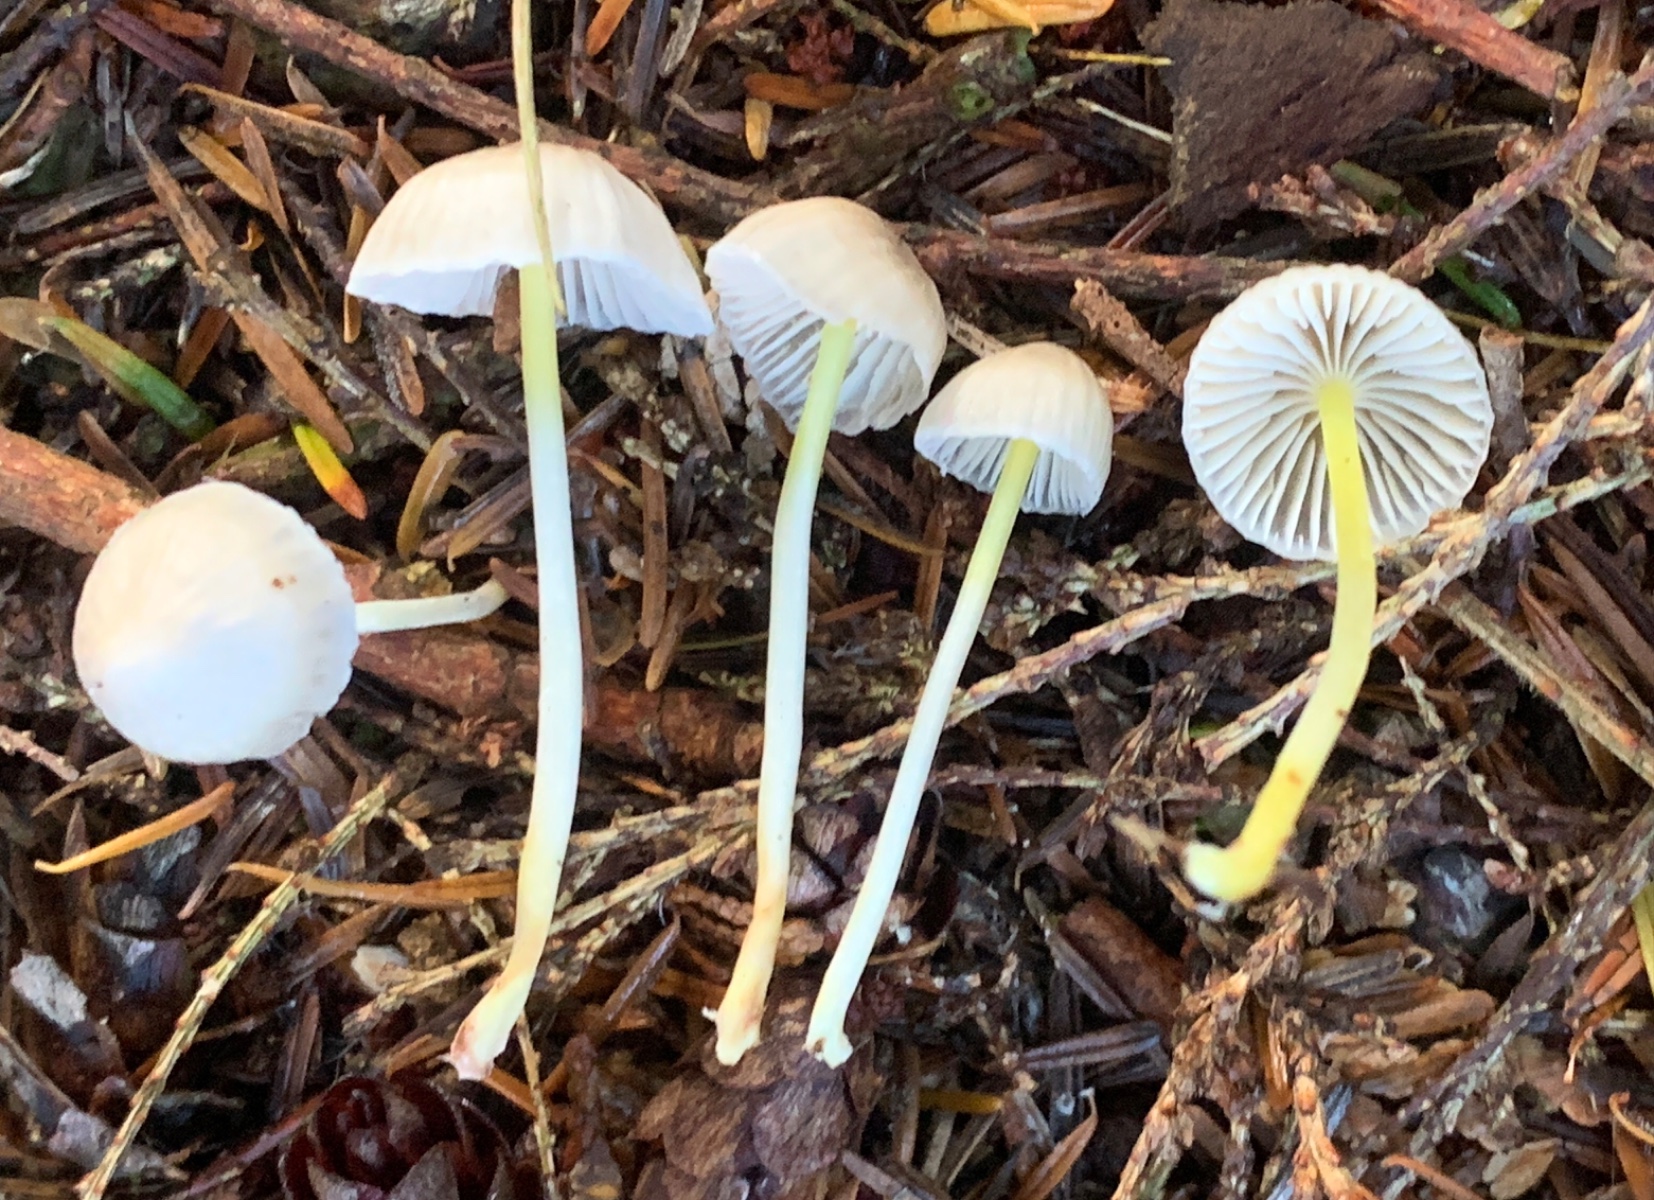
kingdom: Fungi
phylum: Basidiomycota
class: Agaricomycetes
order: Agaricales
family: Mycenaceae
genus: Mycena
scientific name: Mycena epipterygia
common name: gulstokket huesvamp
